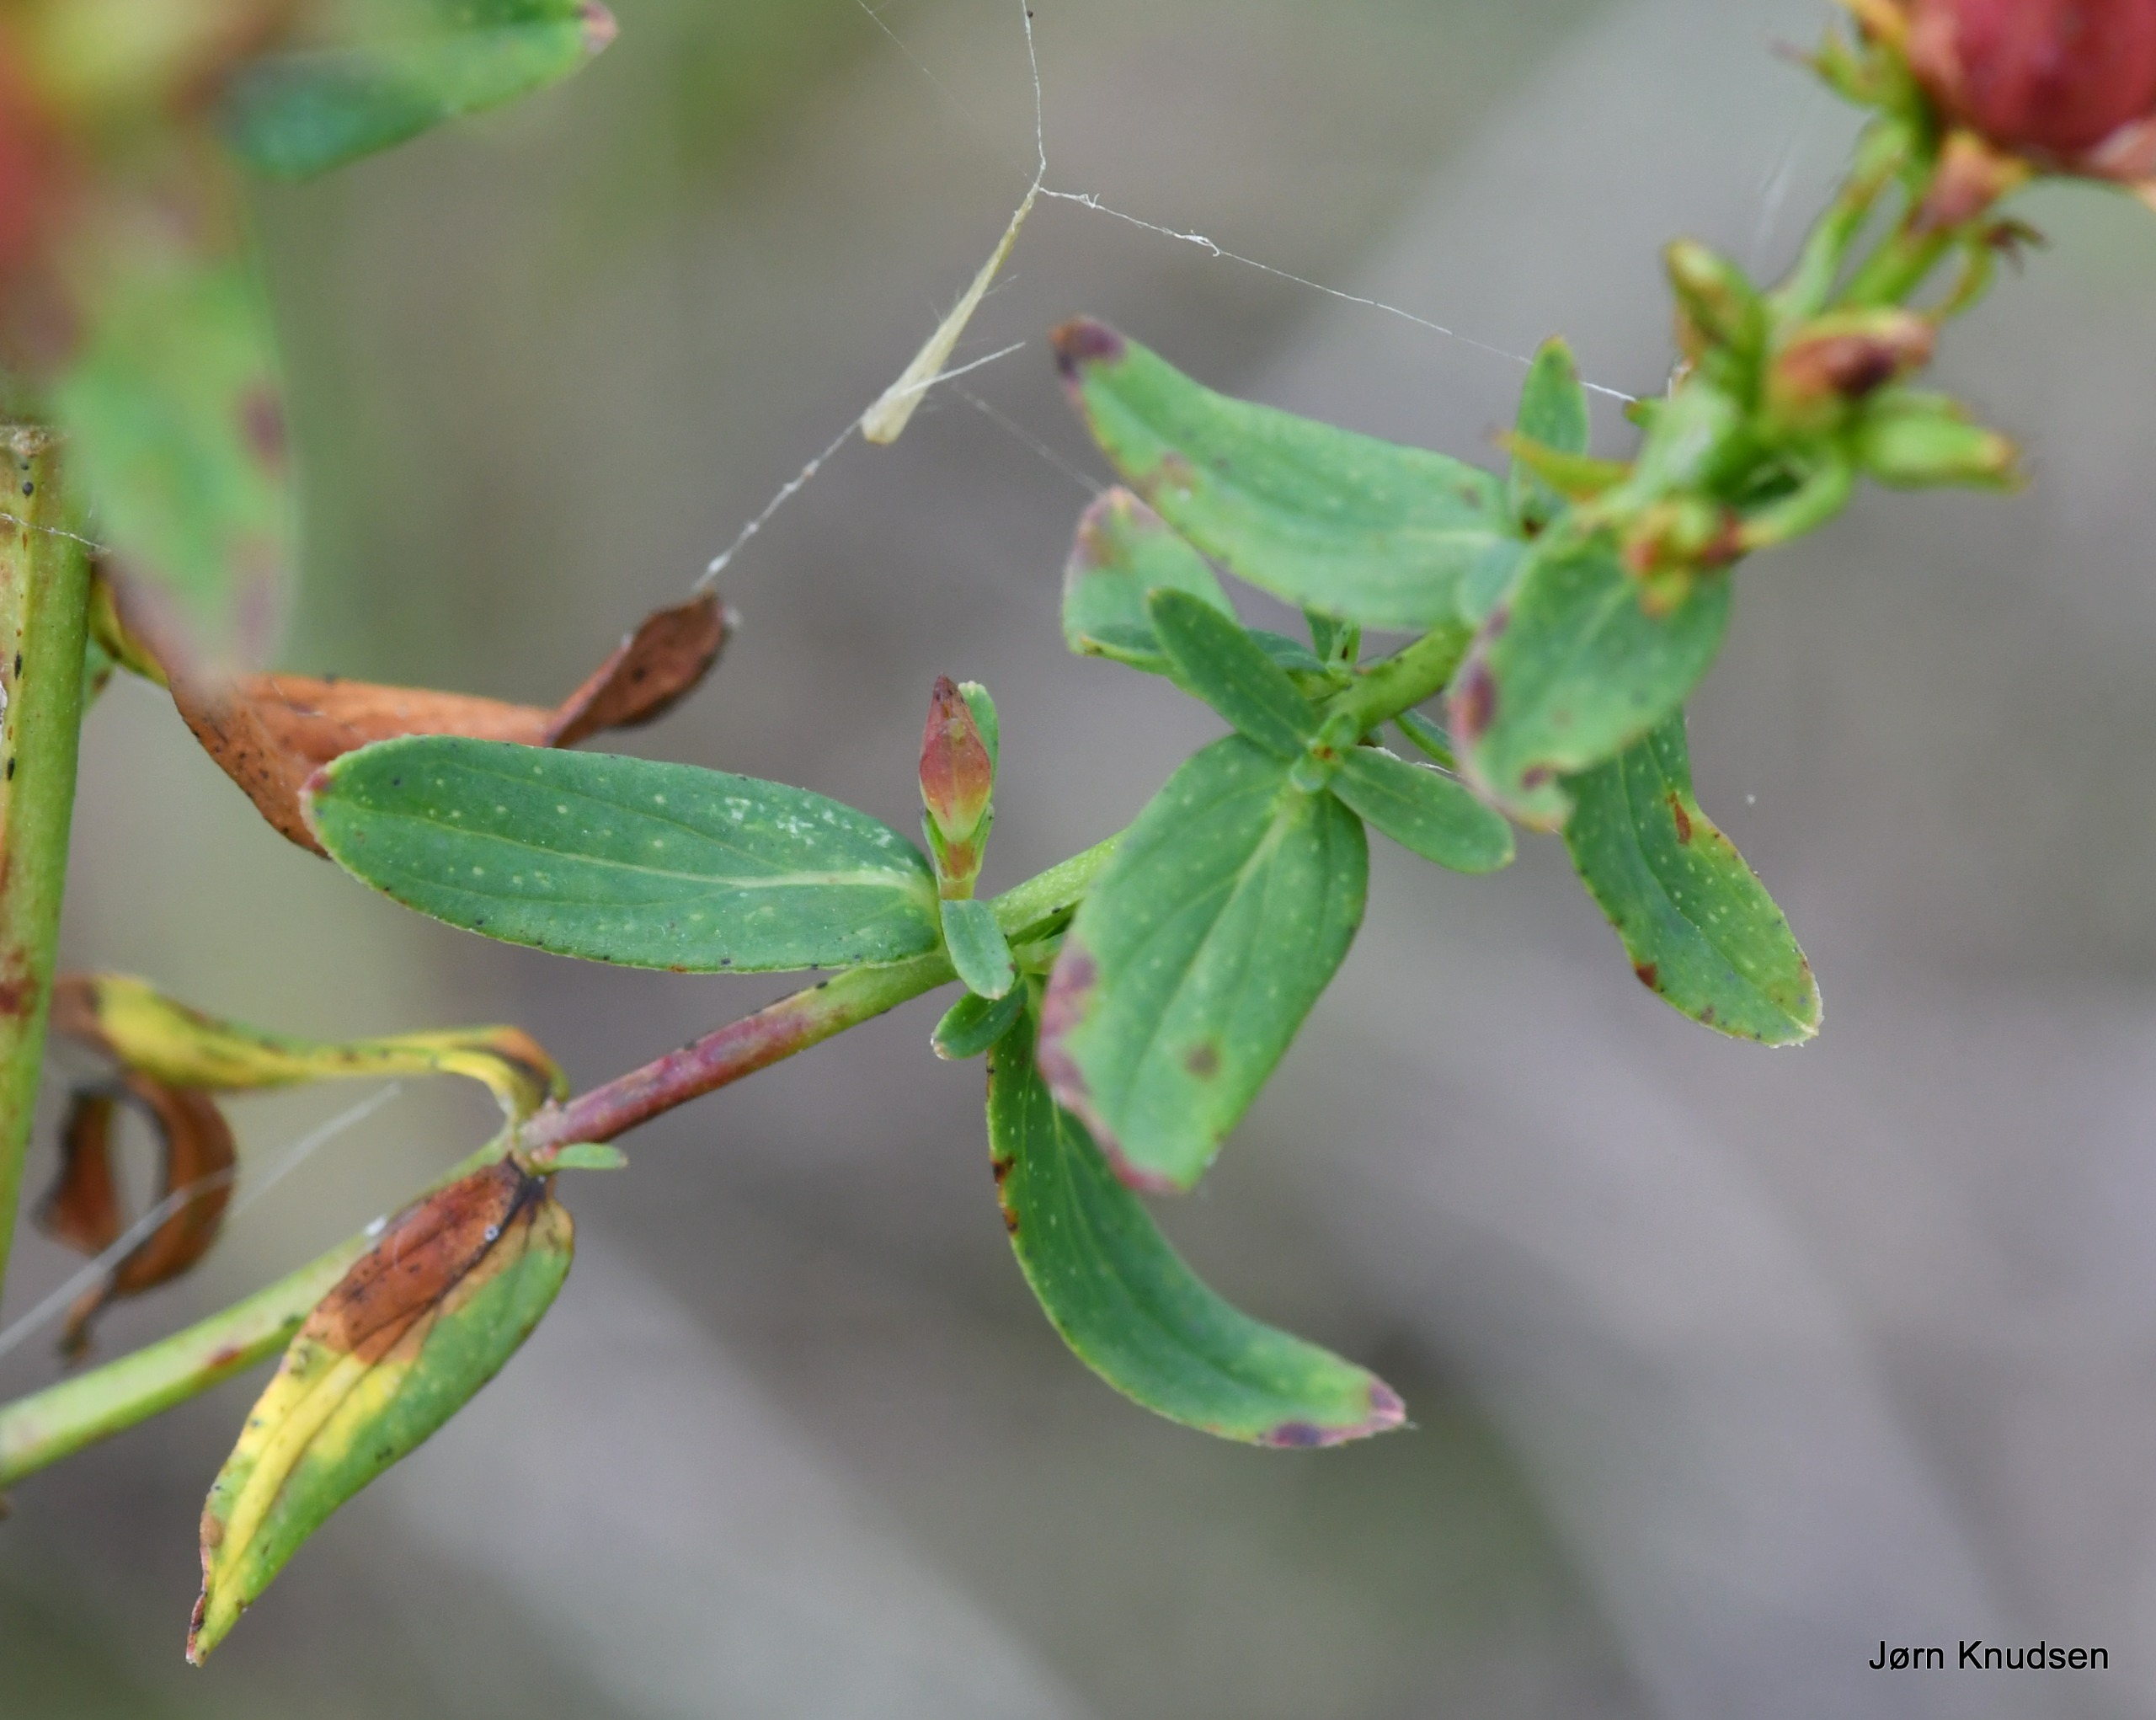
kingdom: Plantae
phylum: Tracheophyta
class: Magnoliopsida
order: Malpighiales
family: Hypericaceae
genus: Hypericum
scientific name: Hypericum perforatum
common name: Prikbladet perikon
